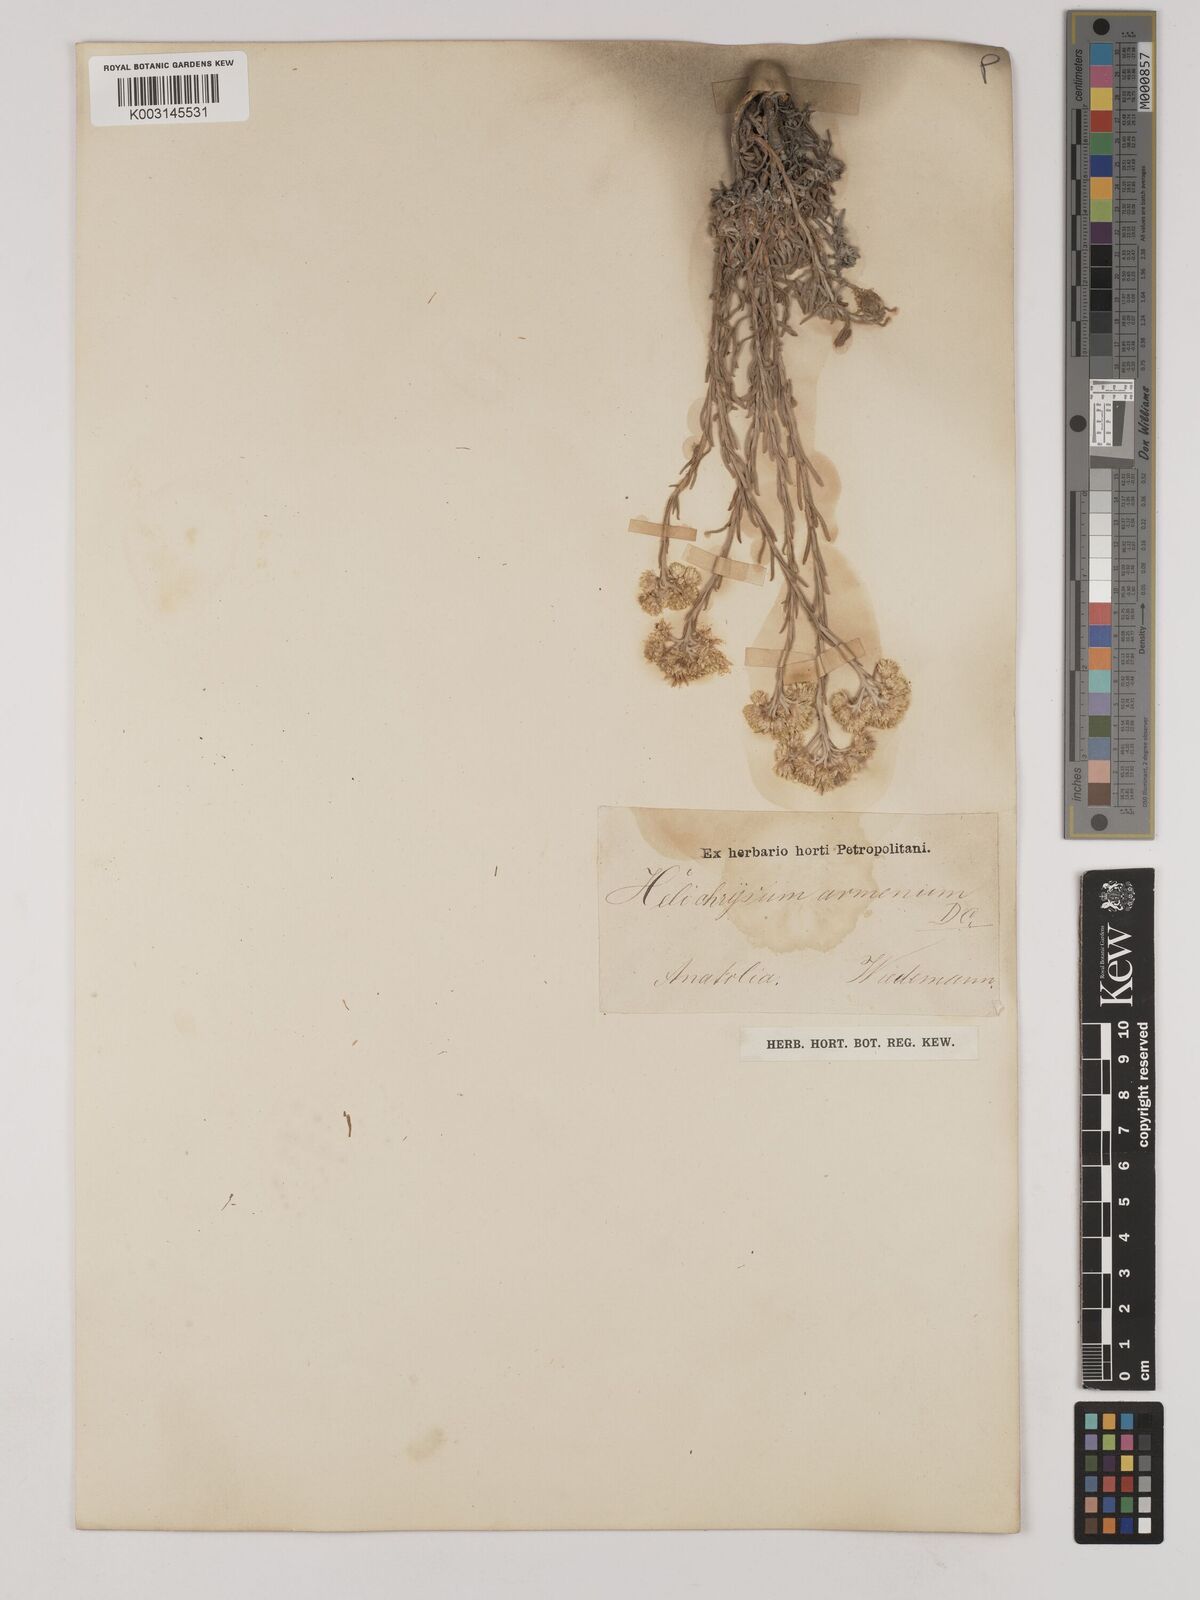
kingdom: Plantae
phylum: Tracheophyta
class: Magnoliopsida
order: Asterales
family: Asteraceae
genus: Helichrysum
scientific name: Helichrysum armenium
